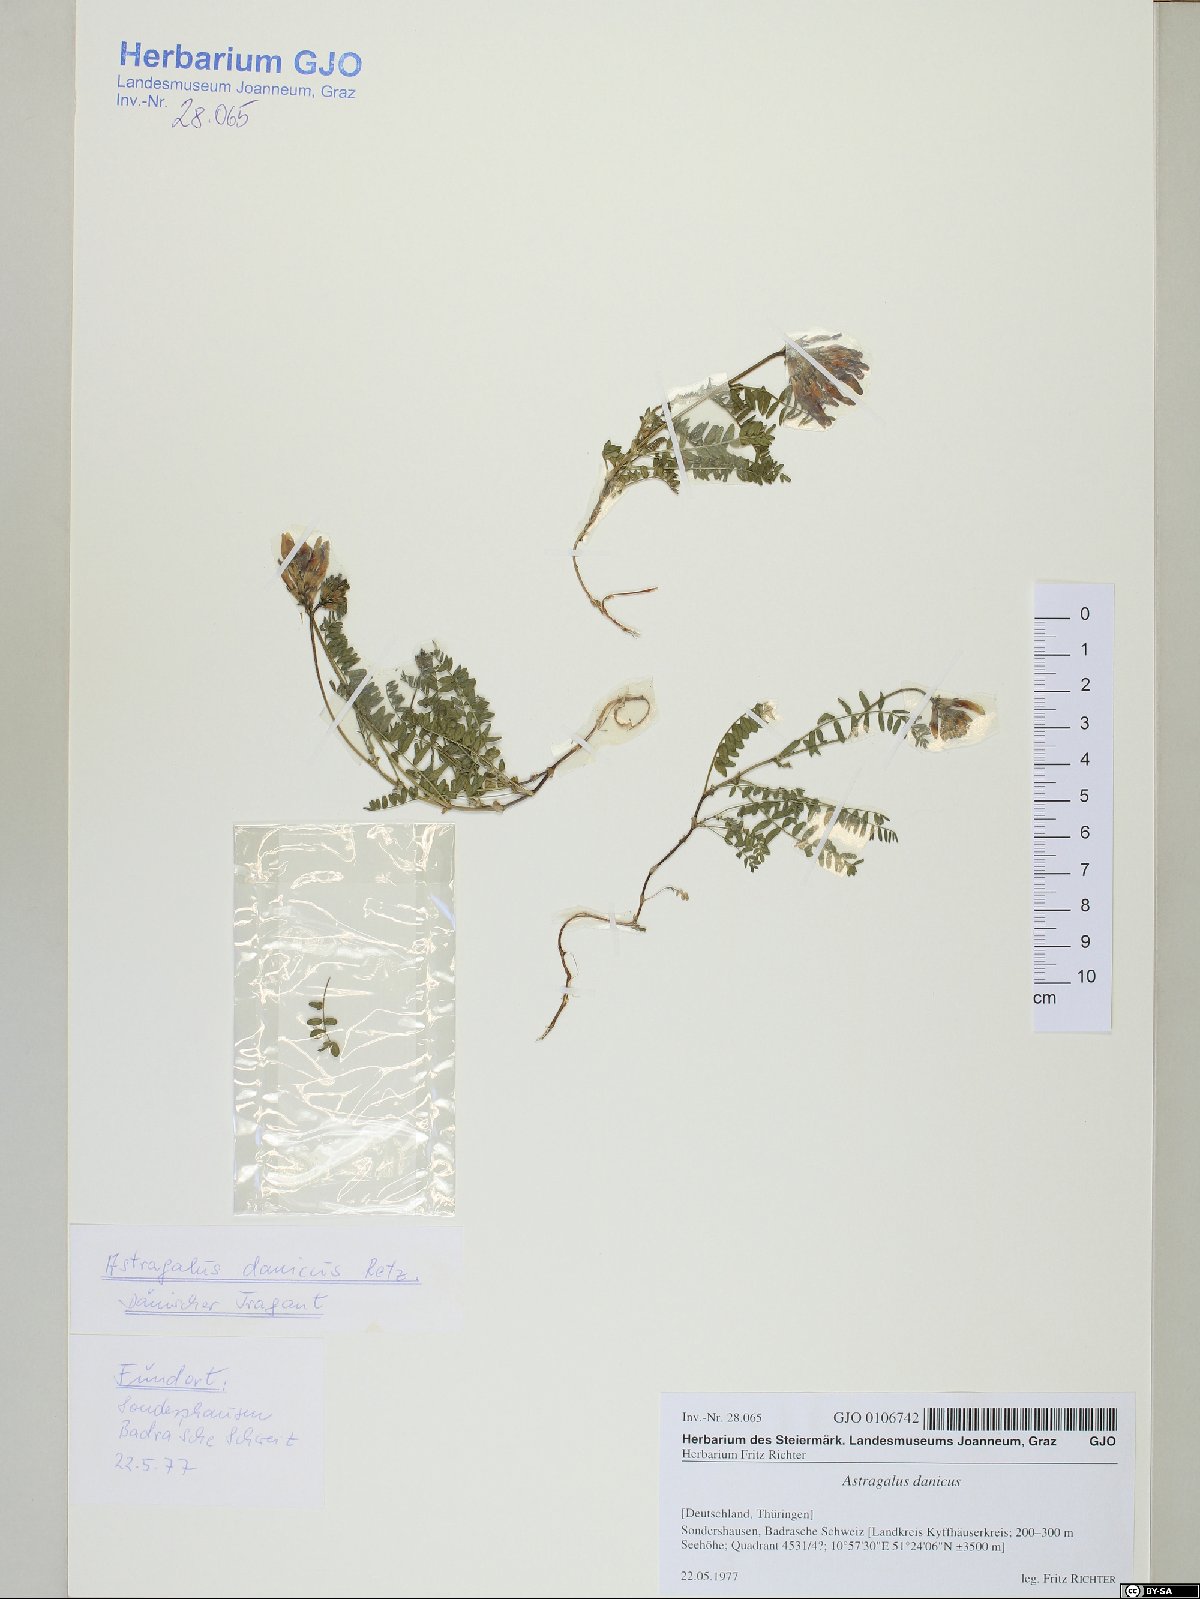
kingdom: Plantae
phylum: Tracheophyta
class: Magnoliopsida
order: Fabales
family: Fabaceae
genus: Astragalus
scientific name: Astragalus danicus
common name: Purple milk-vetch
